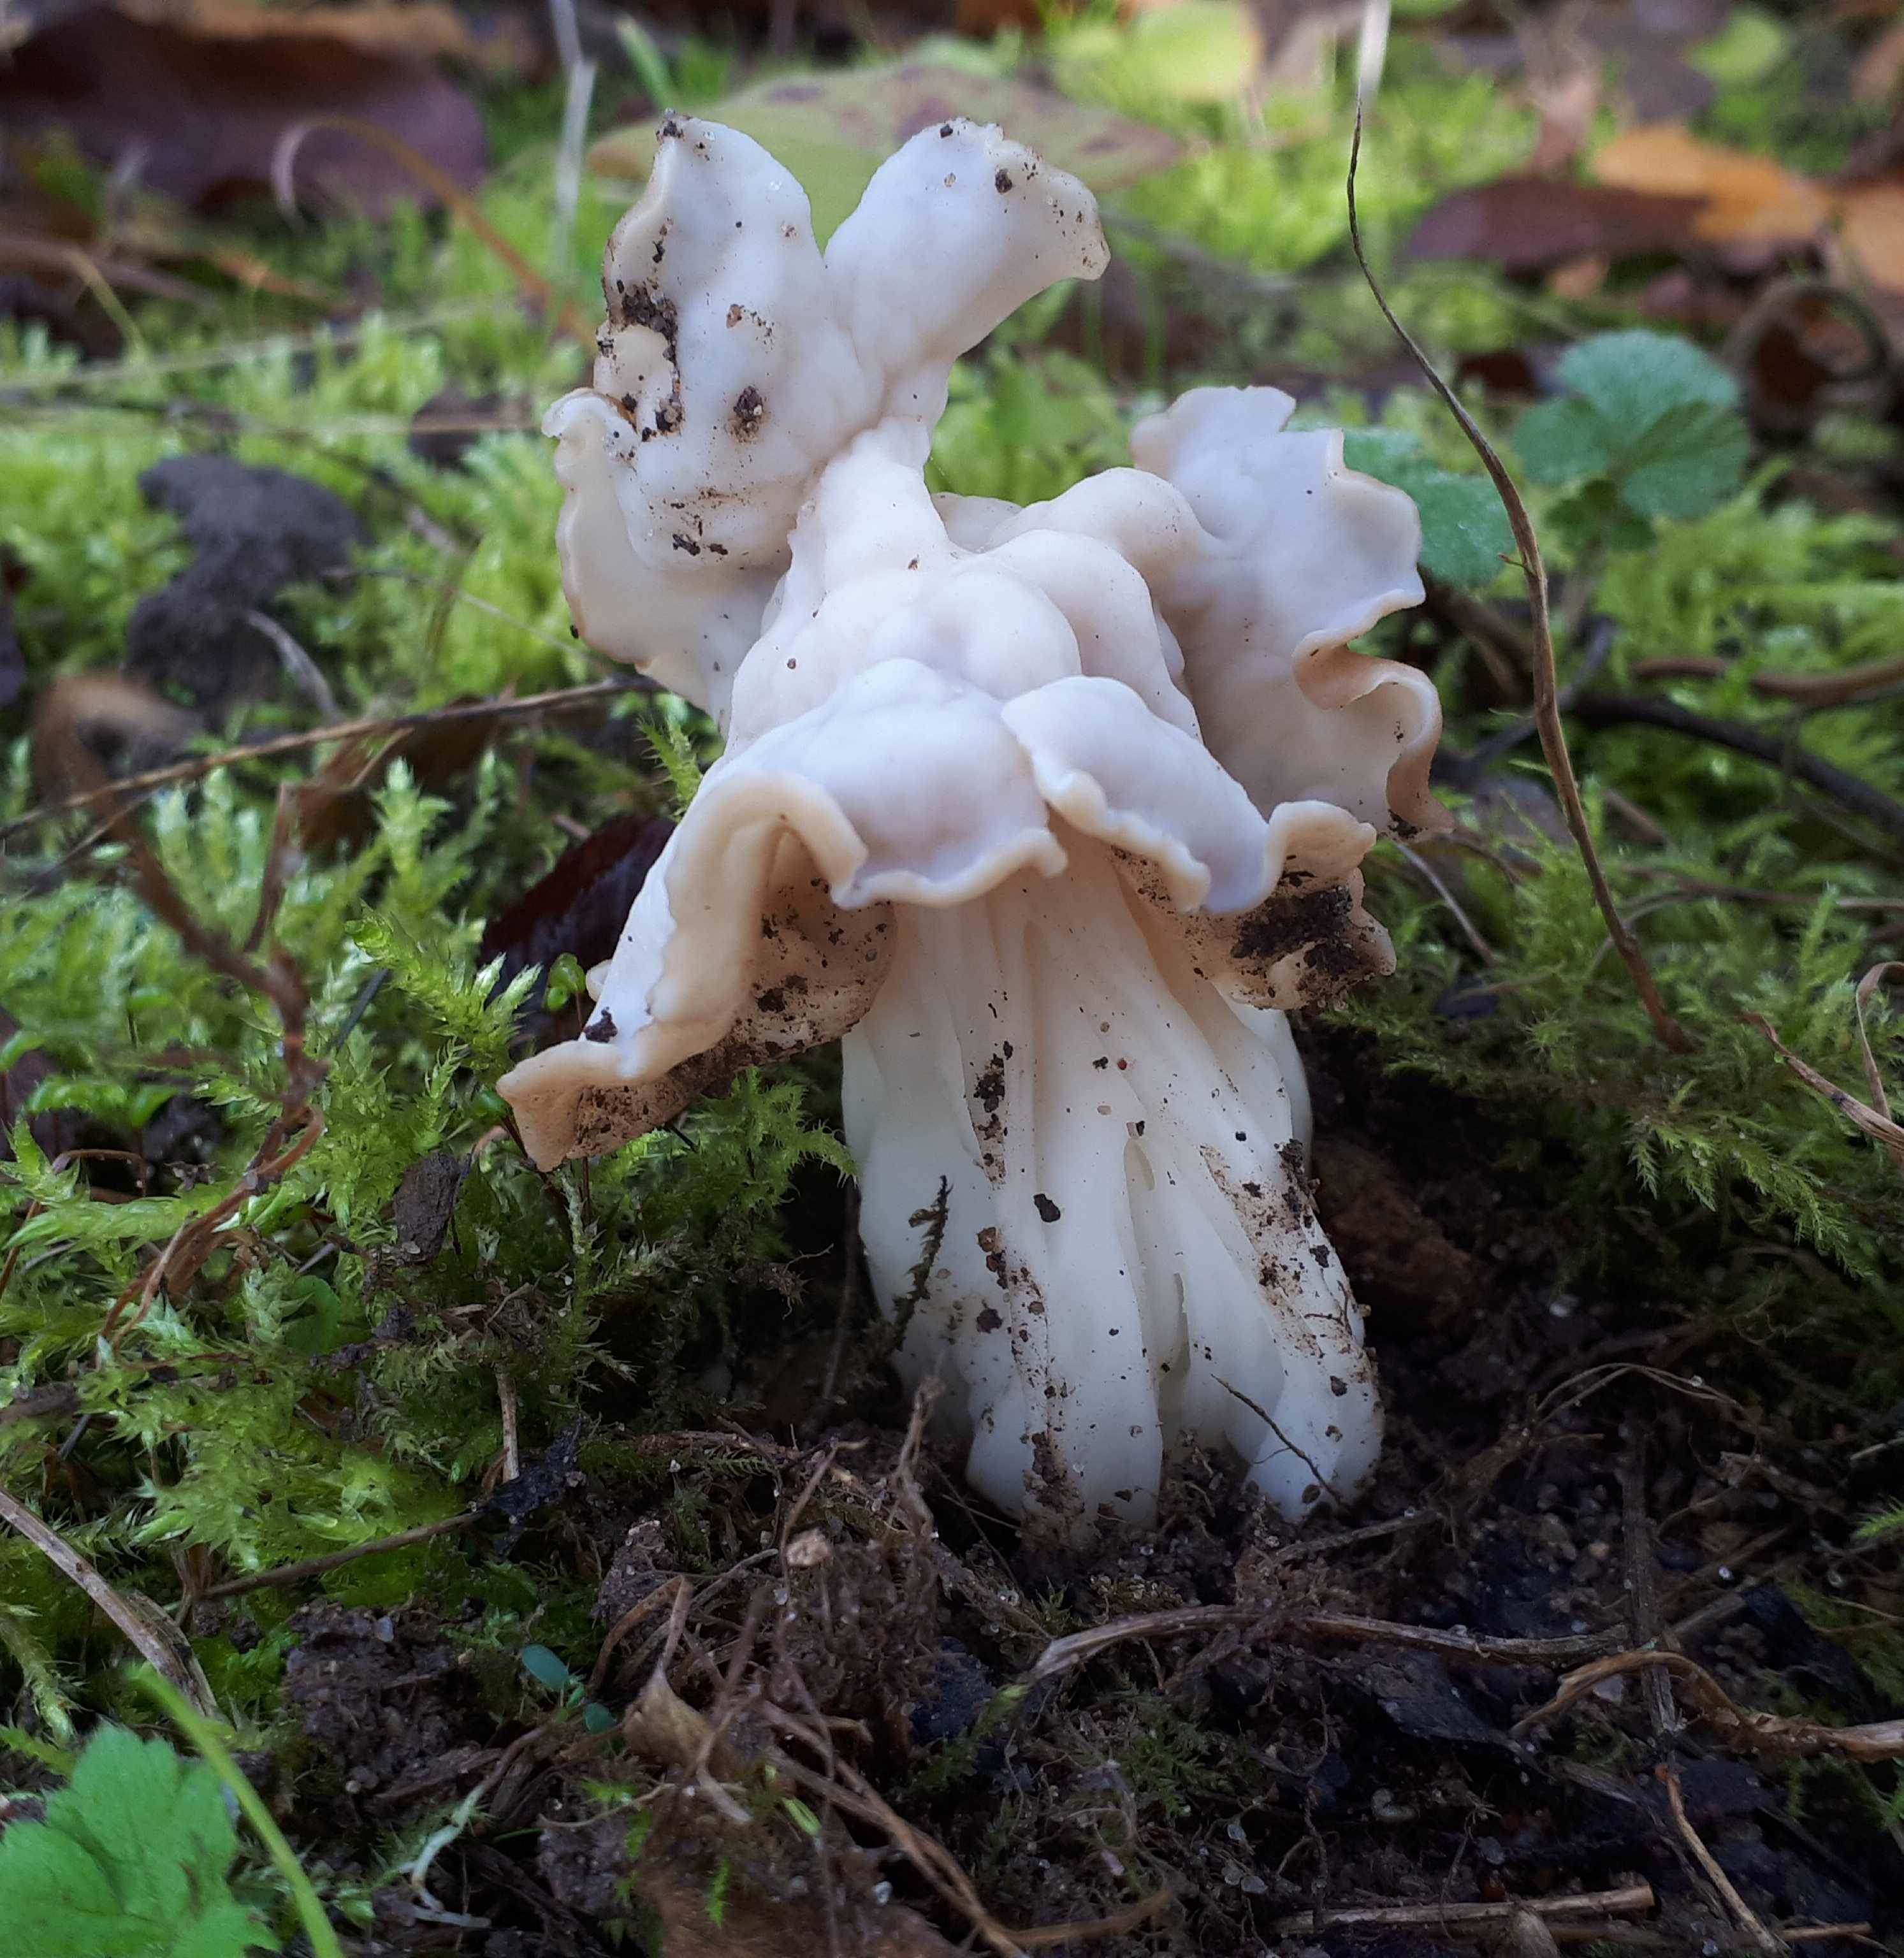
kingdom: Fungi
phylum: Ascomycota
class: Pezizomycetes
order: Pezizales
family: Helvellaceae
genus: Helvella
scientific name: Helvella crispa
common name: kruset foldhat
